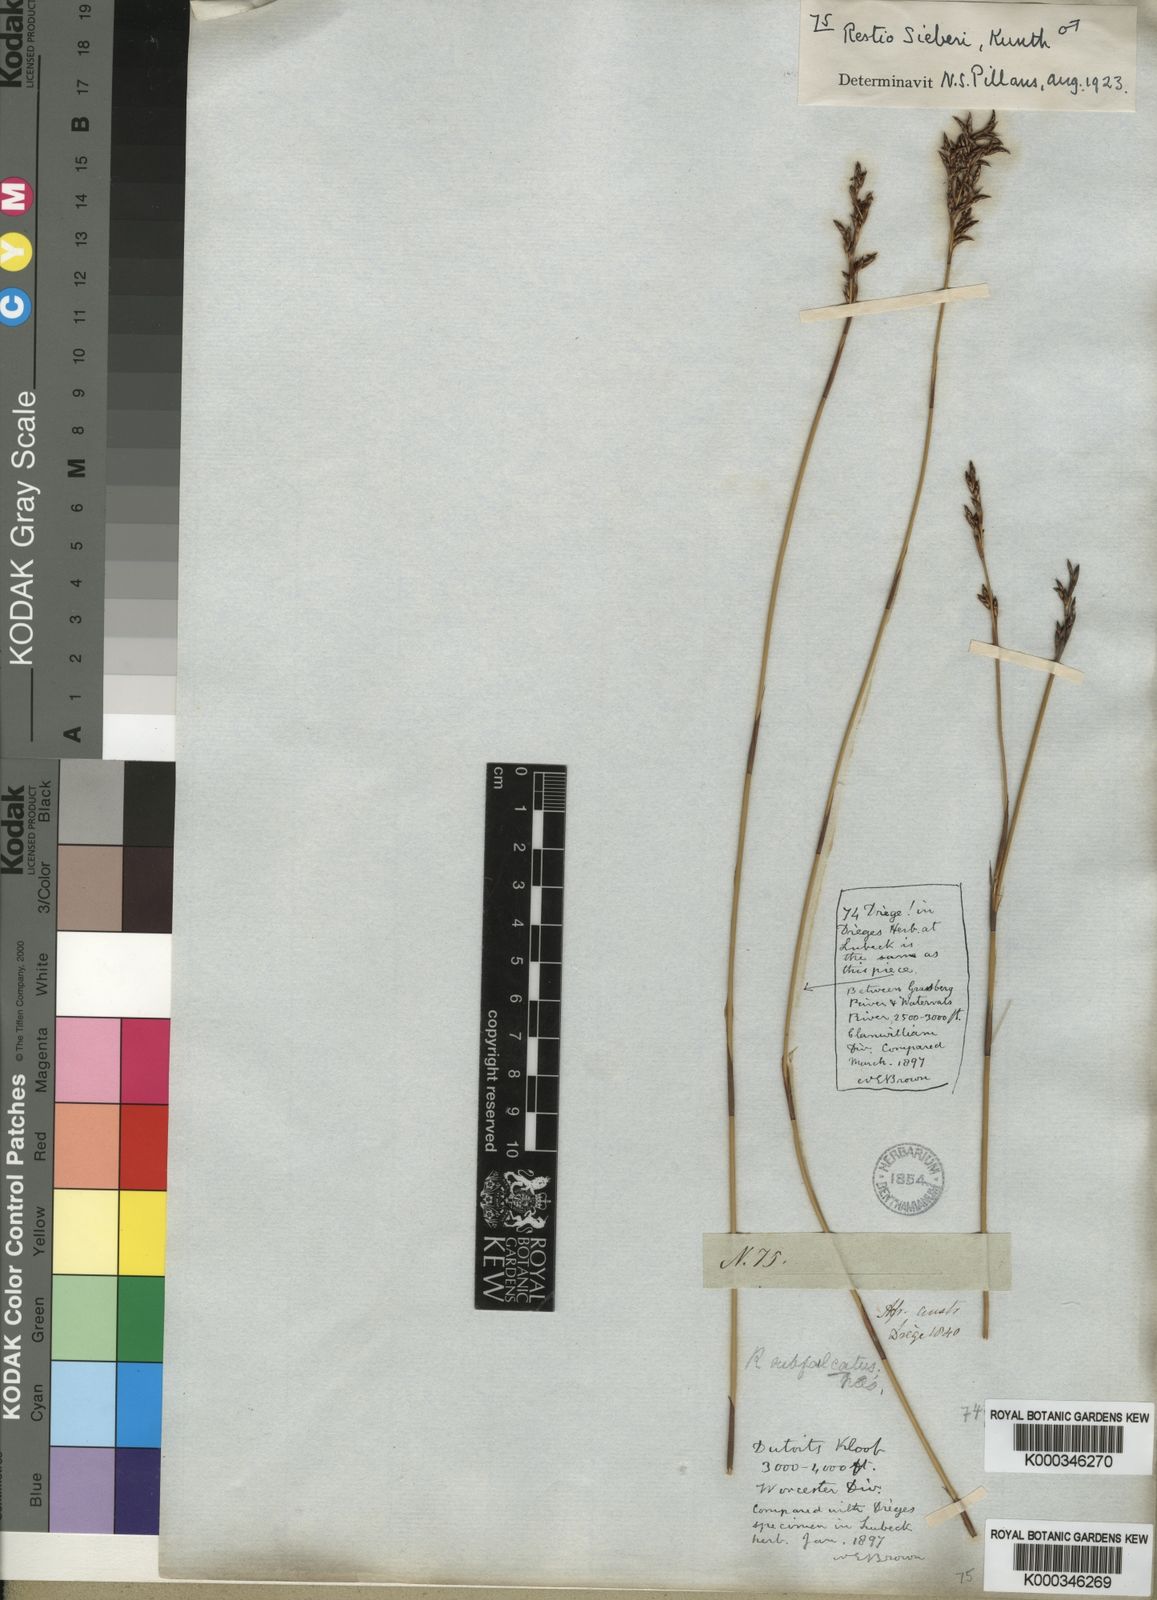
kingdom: Plantae
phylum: Tracheophyta
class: Liliopsida
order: Poales
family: Restionaceae
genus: Restio
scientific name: Restio sieberi
